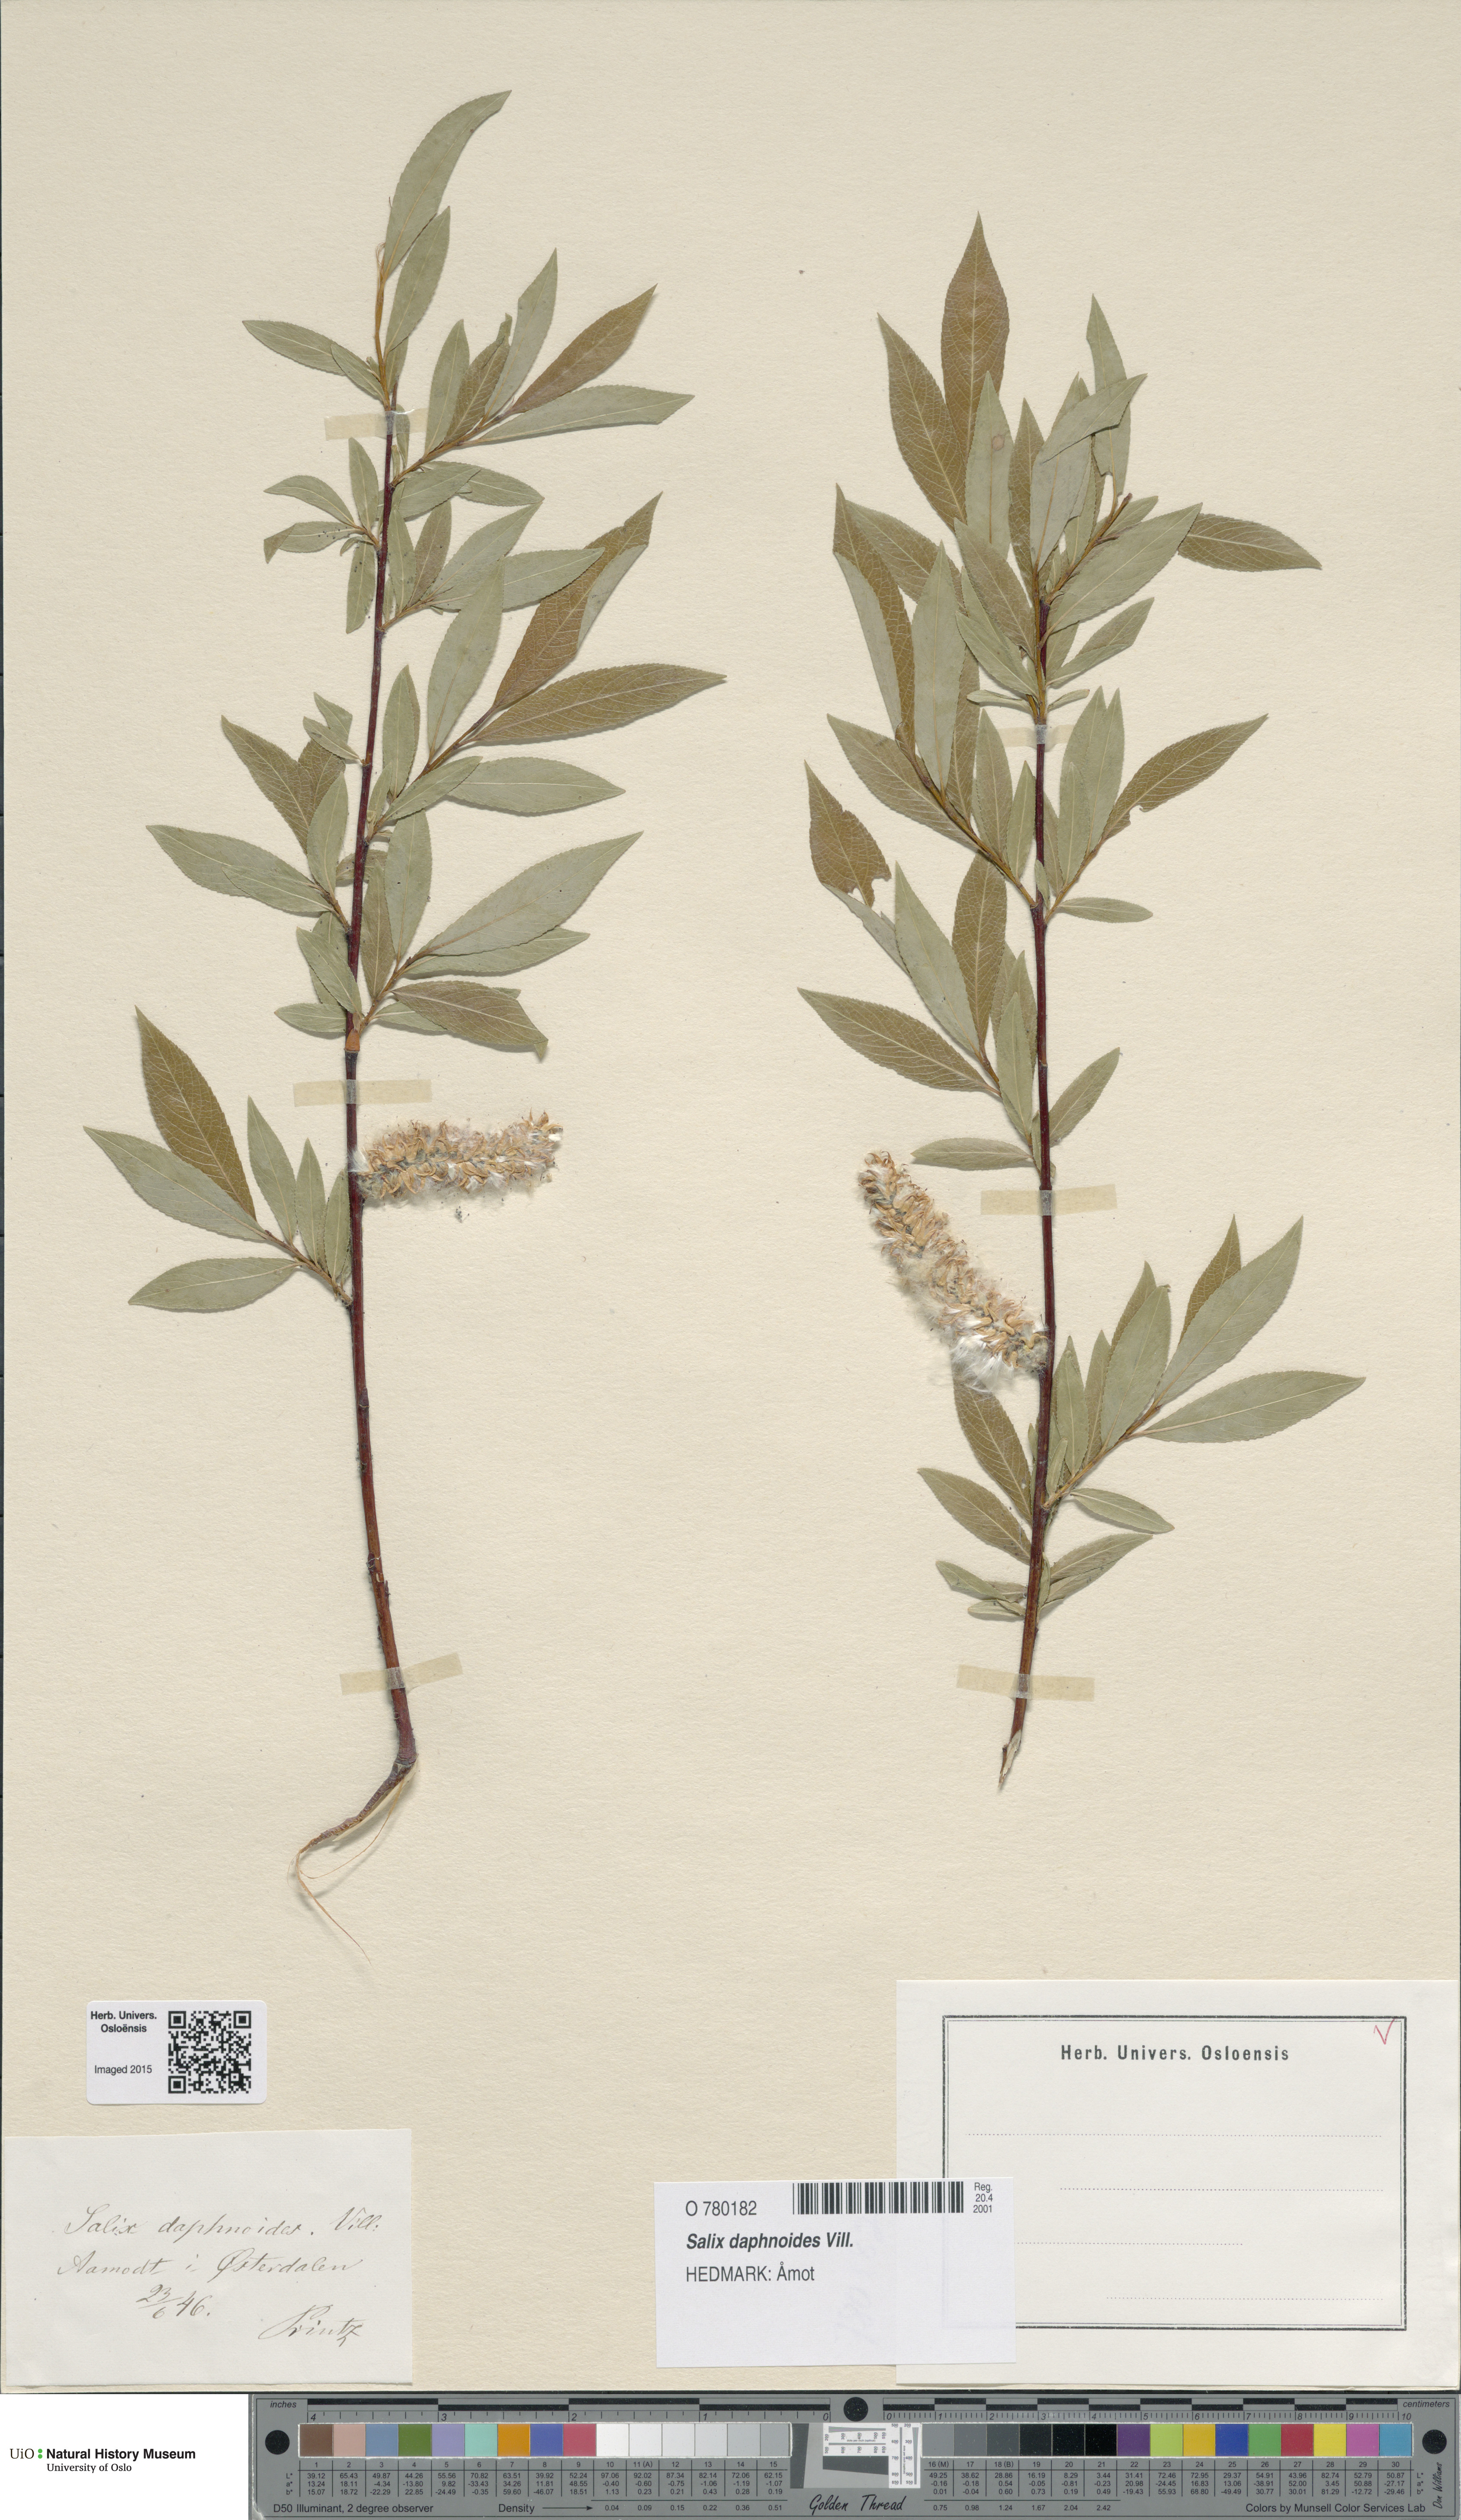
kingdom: Plantae
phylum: Tracheophyta
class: Magnoliopsida
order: Malpighiales
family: Salicaceae
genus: Salix
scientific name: Salix daphnoides
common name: European violet-willow
